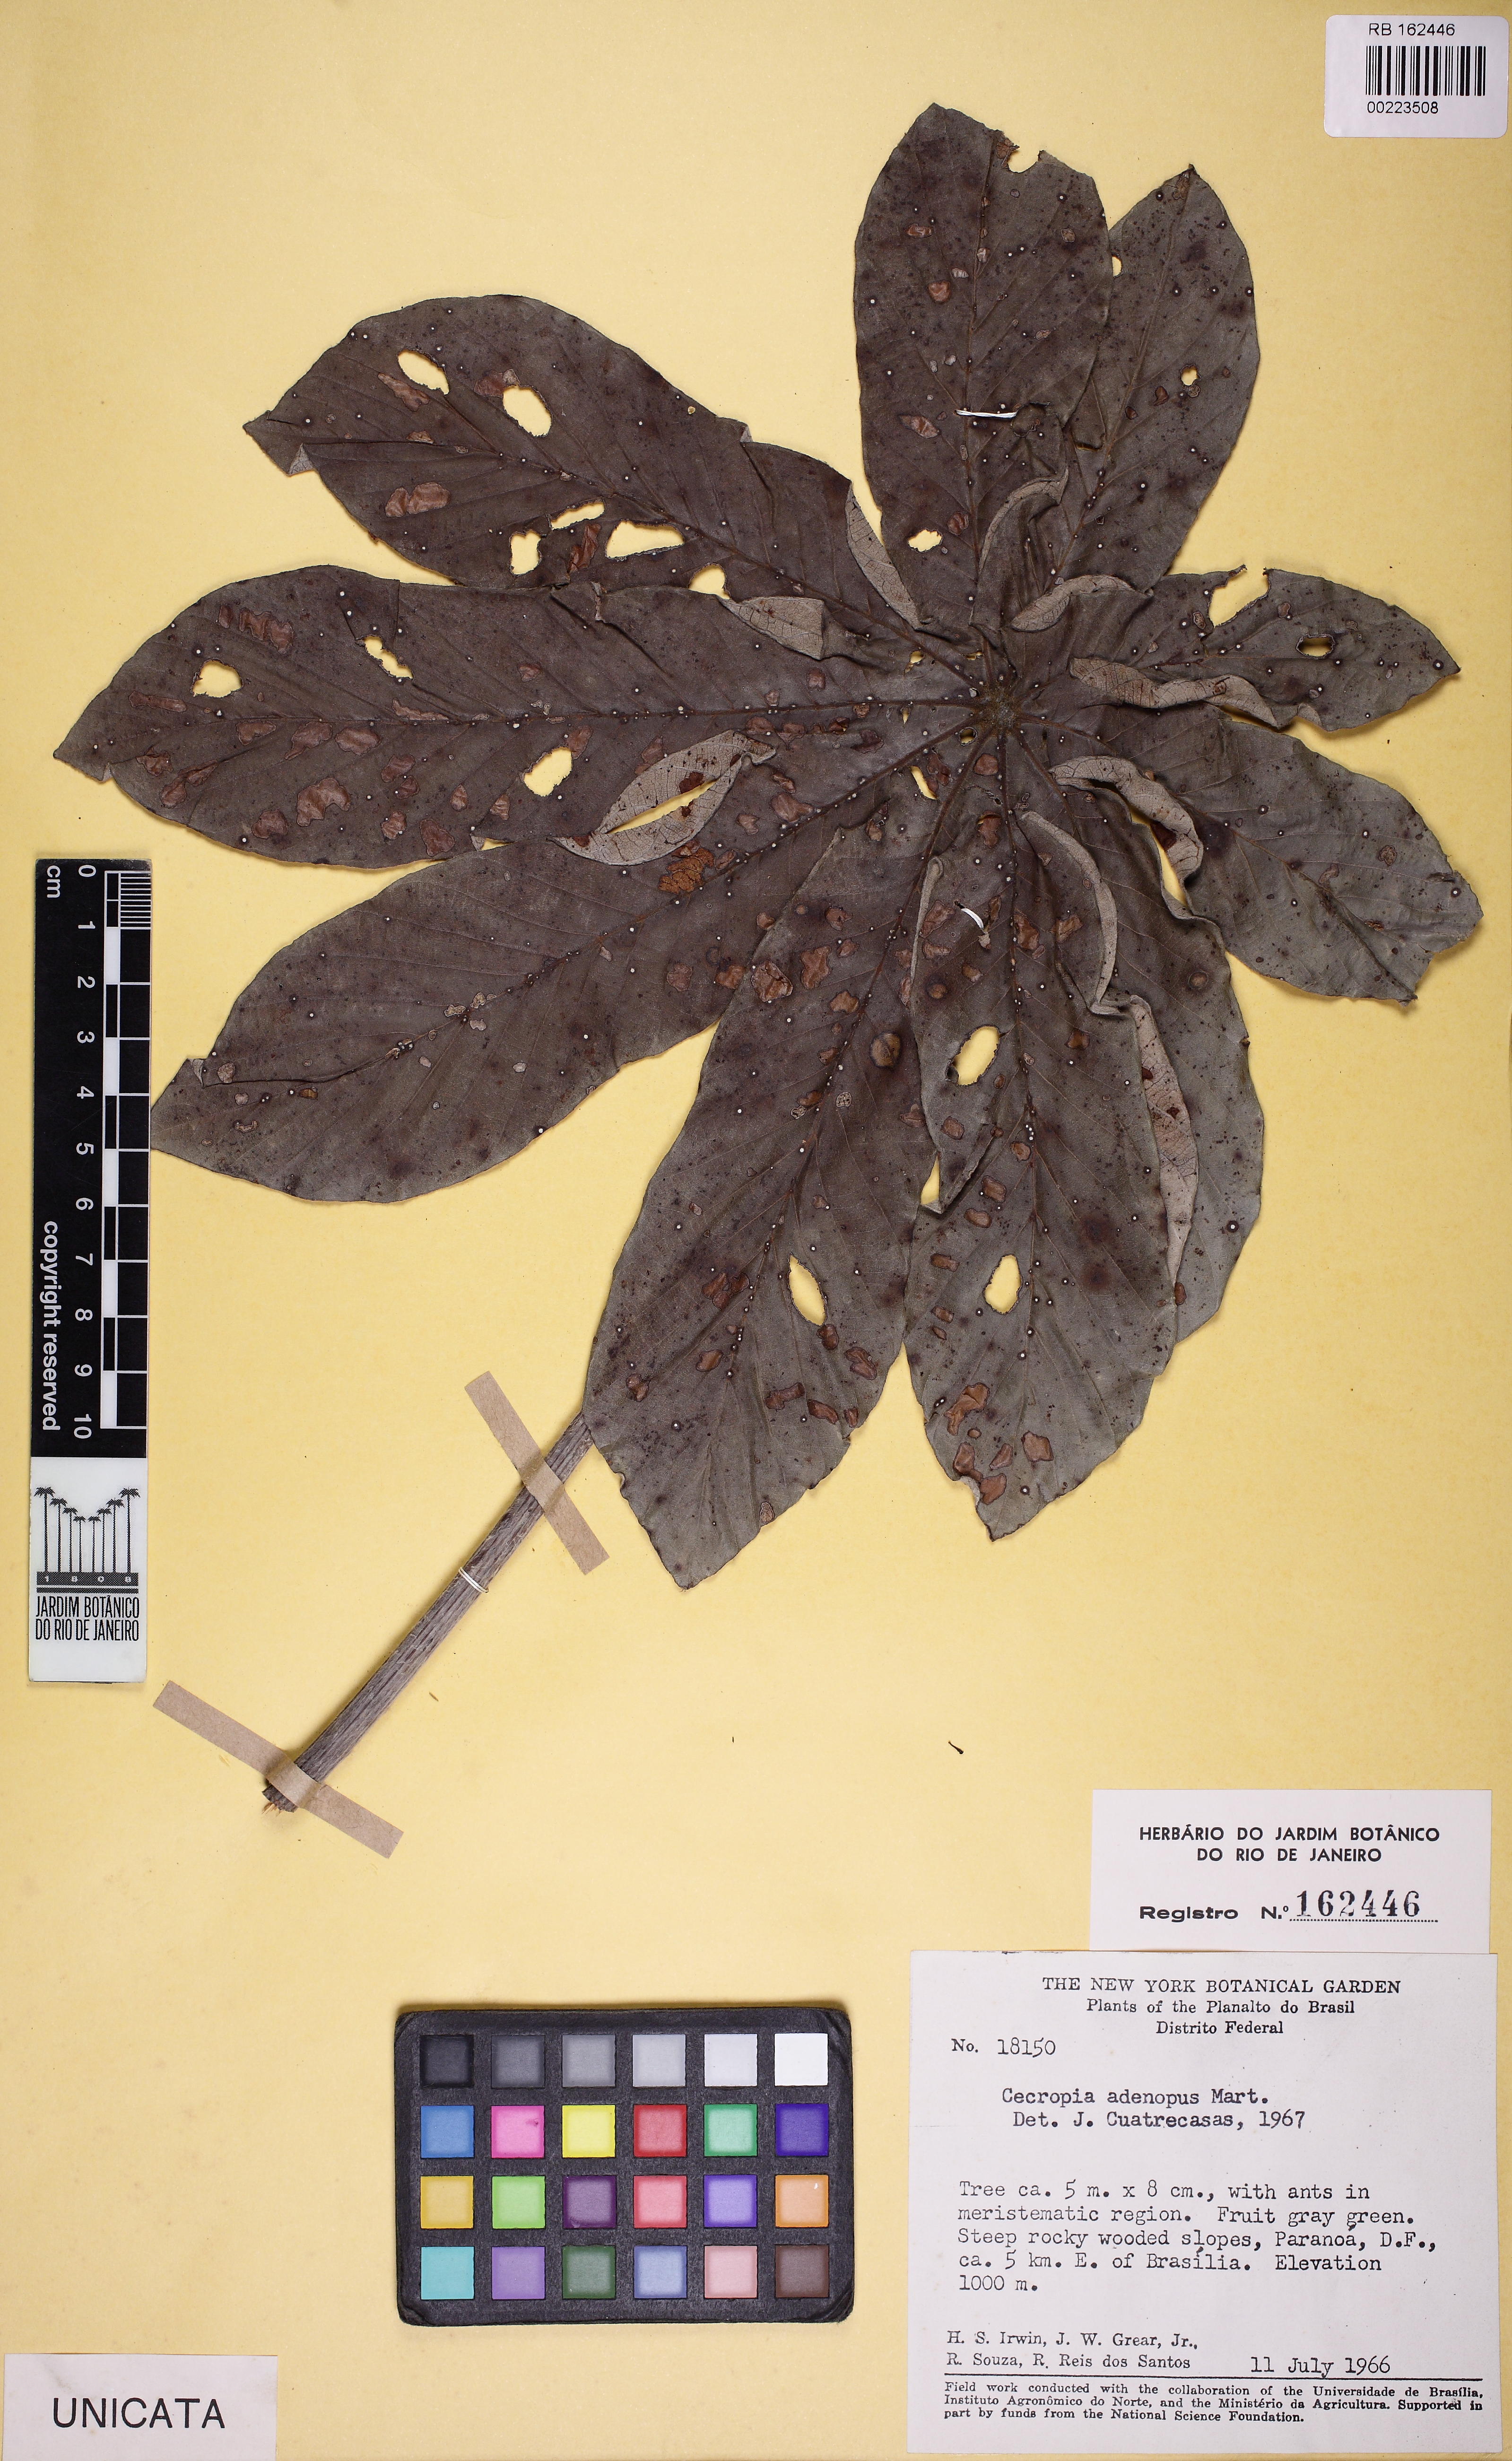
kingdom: Plantae
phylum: Tracheophyta
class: Magnoliopsida
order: Rosales
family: Urticaceae
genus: Cecropia
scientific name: Cecropia pachystachya
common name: Ambay pumpwood
